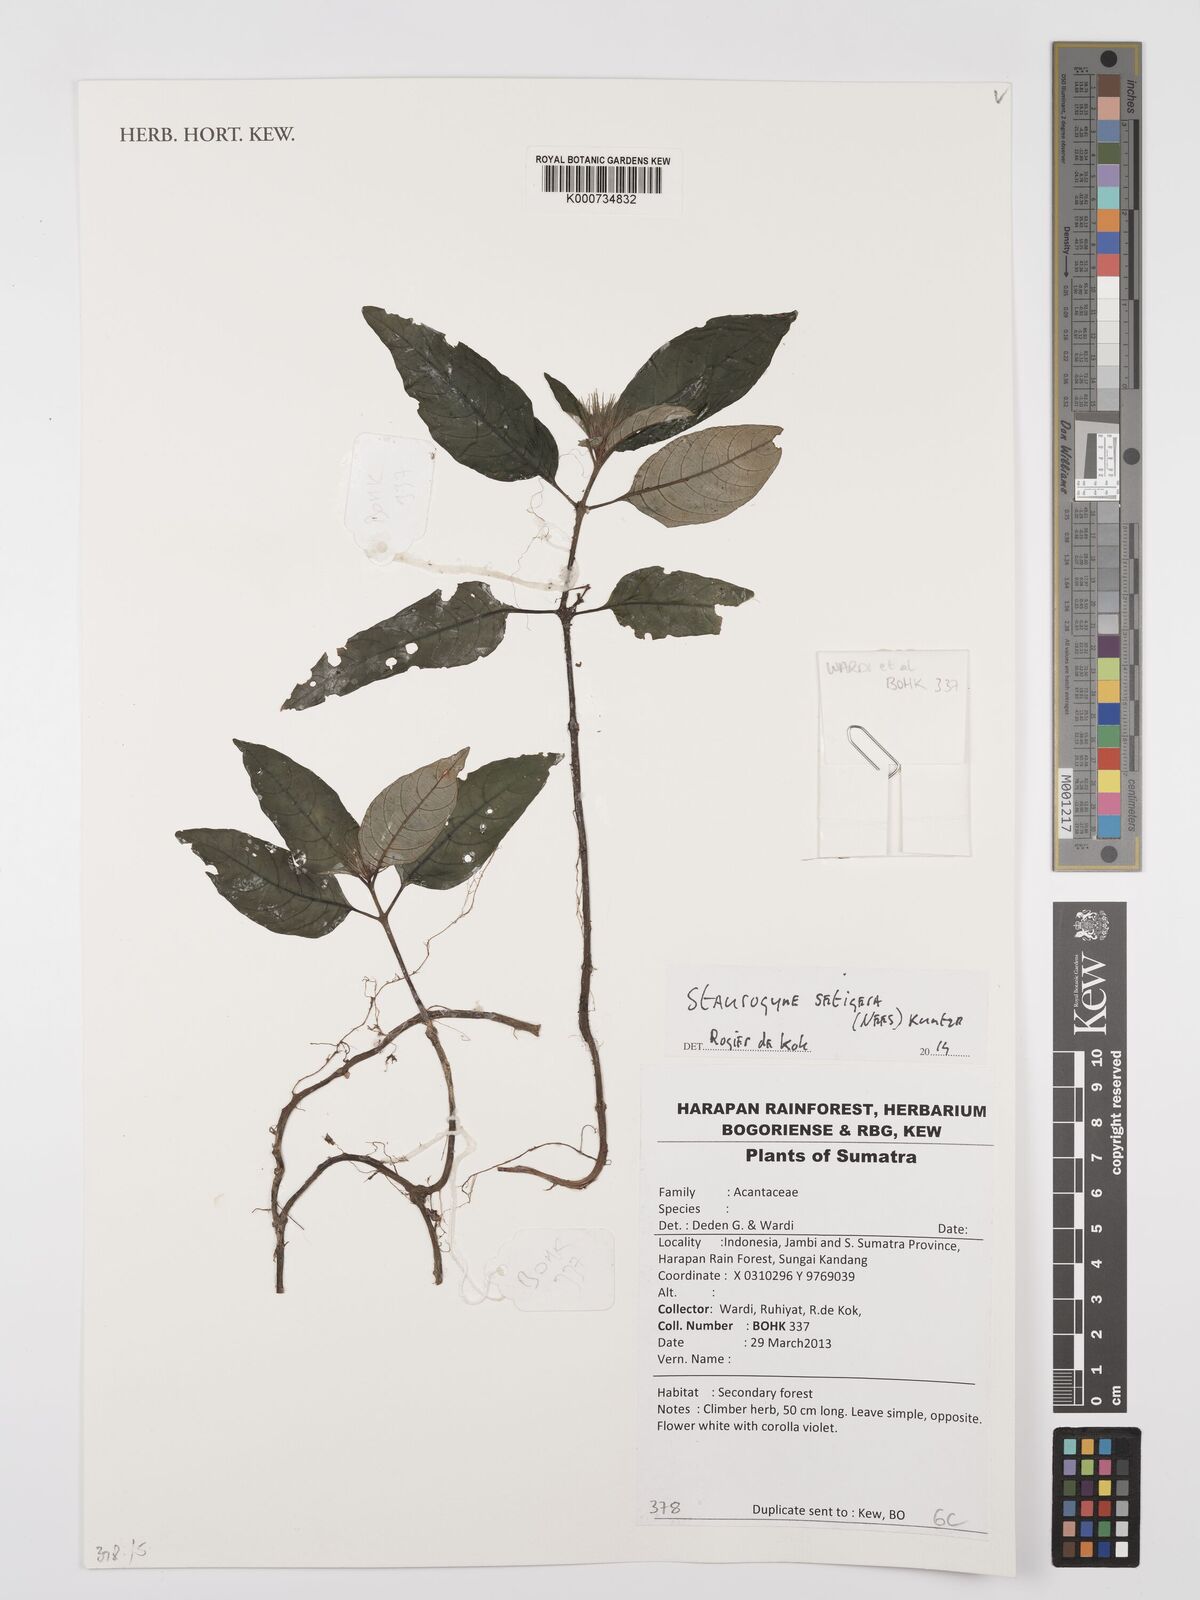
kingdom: Plantae
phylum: Tracheophyta
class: Magnoliopsida
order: Lamiales
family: Acanthaceae
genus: Staurogyne
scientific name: Staurogyne setigera
